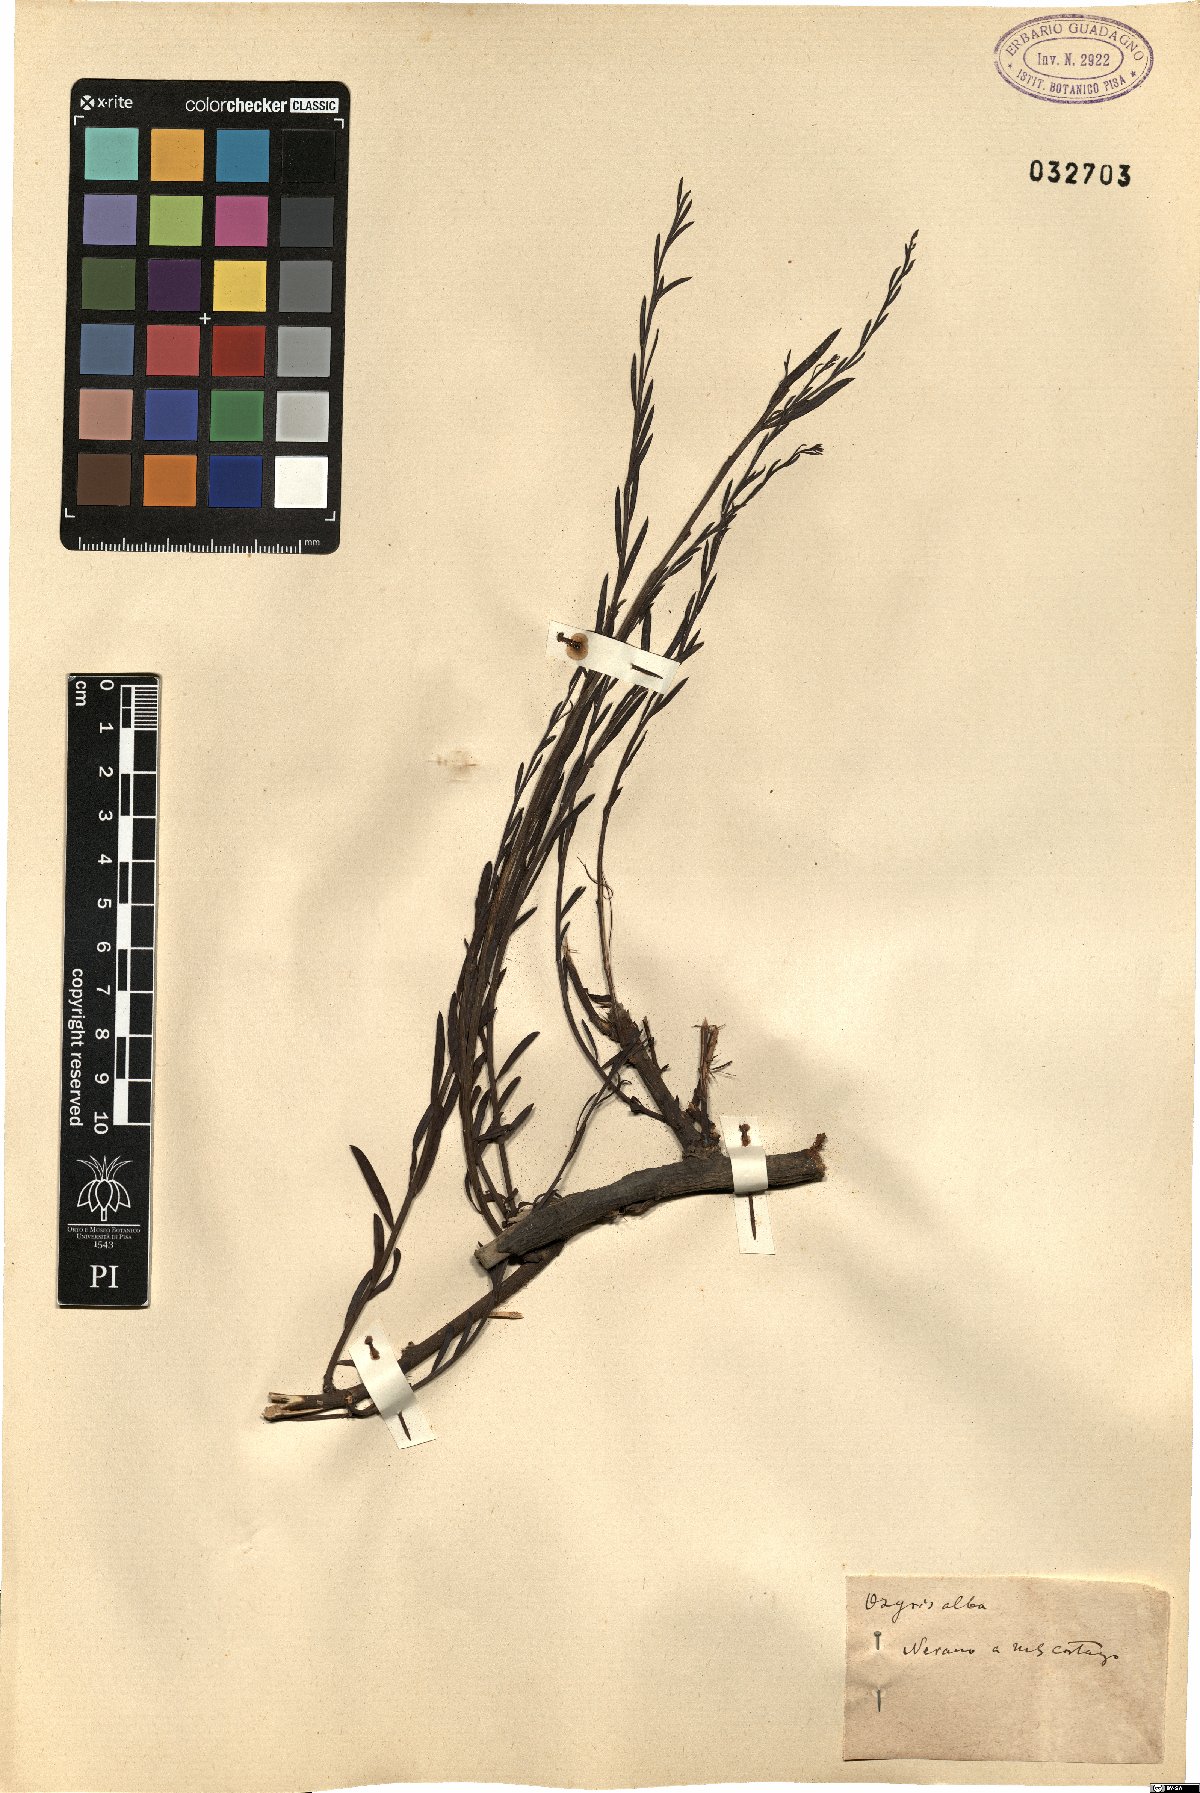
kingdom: Plantae
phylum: Tracheophyta
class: Magnoliopsida
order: Santalales
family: Santalaceae
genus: Osyris
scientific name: Osyris alba
